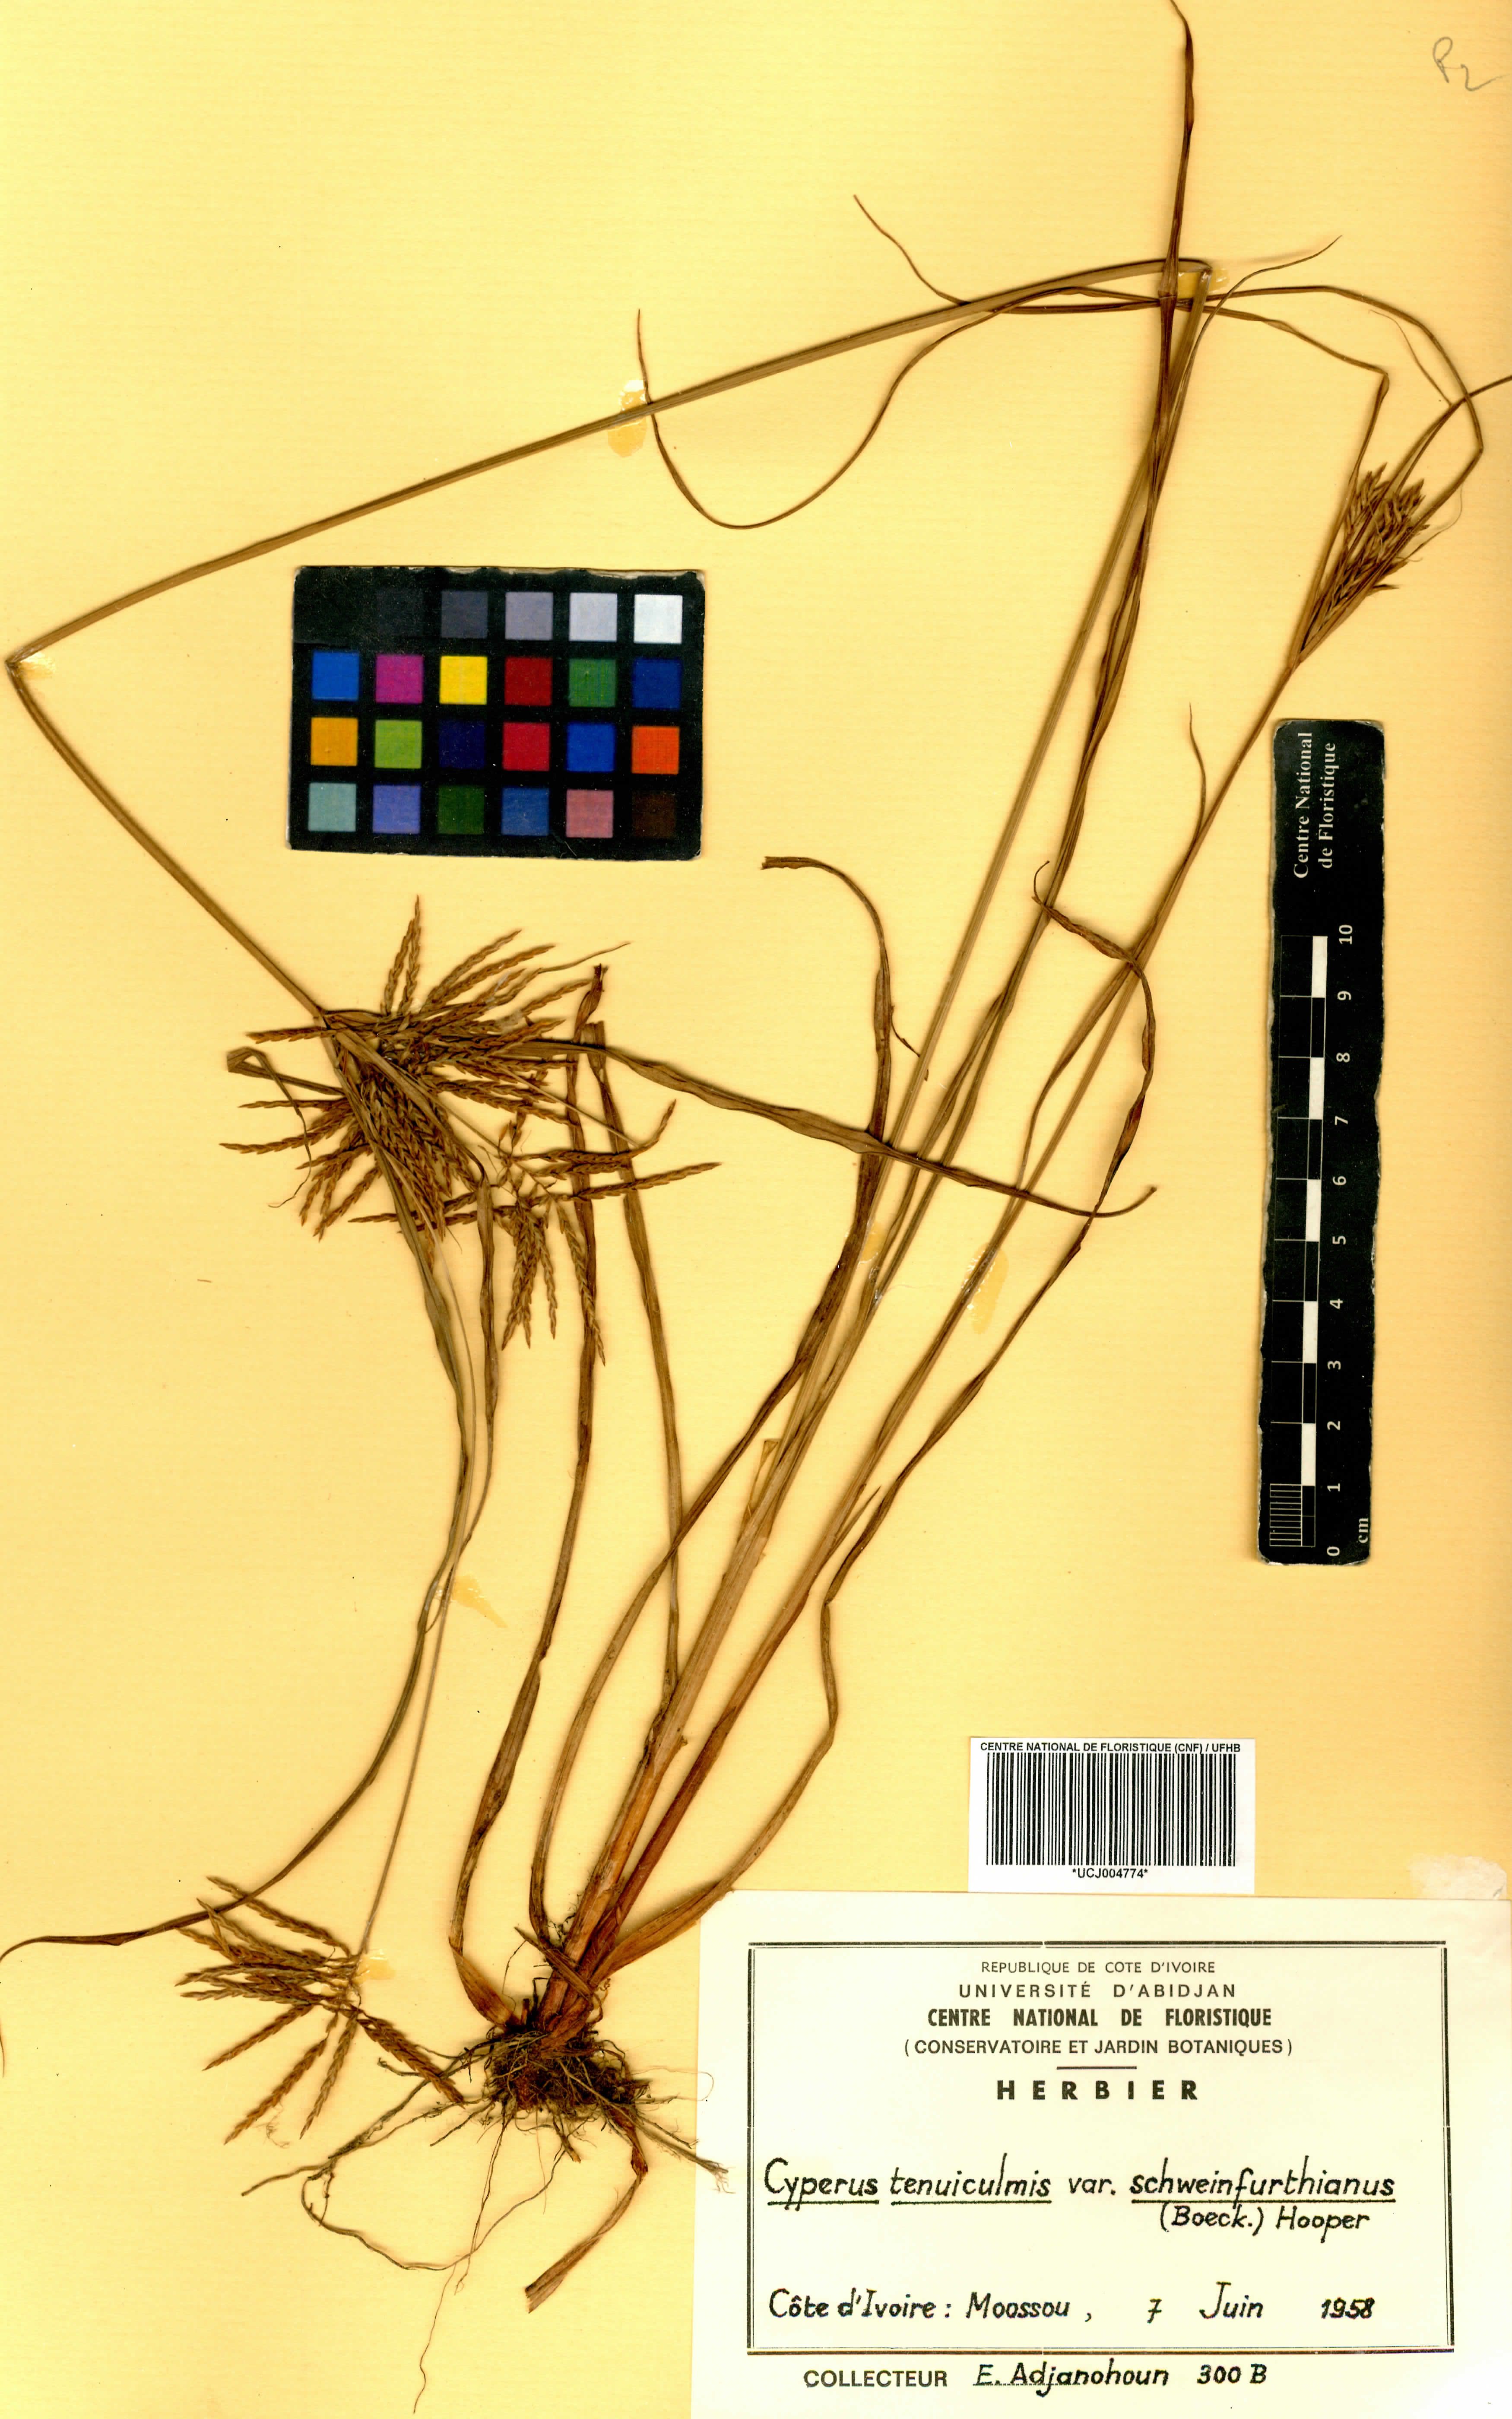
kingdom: Plantae
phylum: Tracheophyta
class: Liliopsida
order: Poales
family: Cyperaceae
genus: Cyperus
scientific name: Cyperus tenuiculmis
